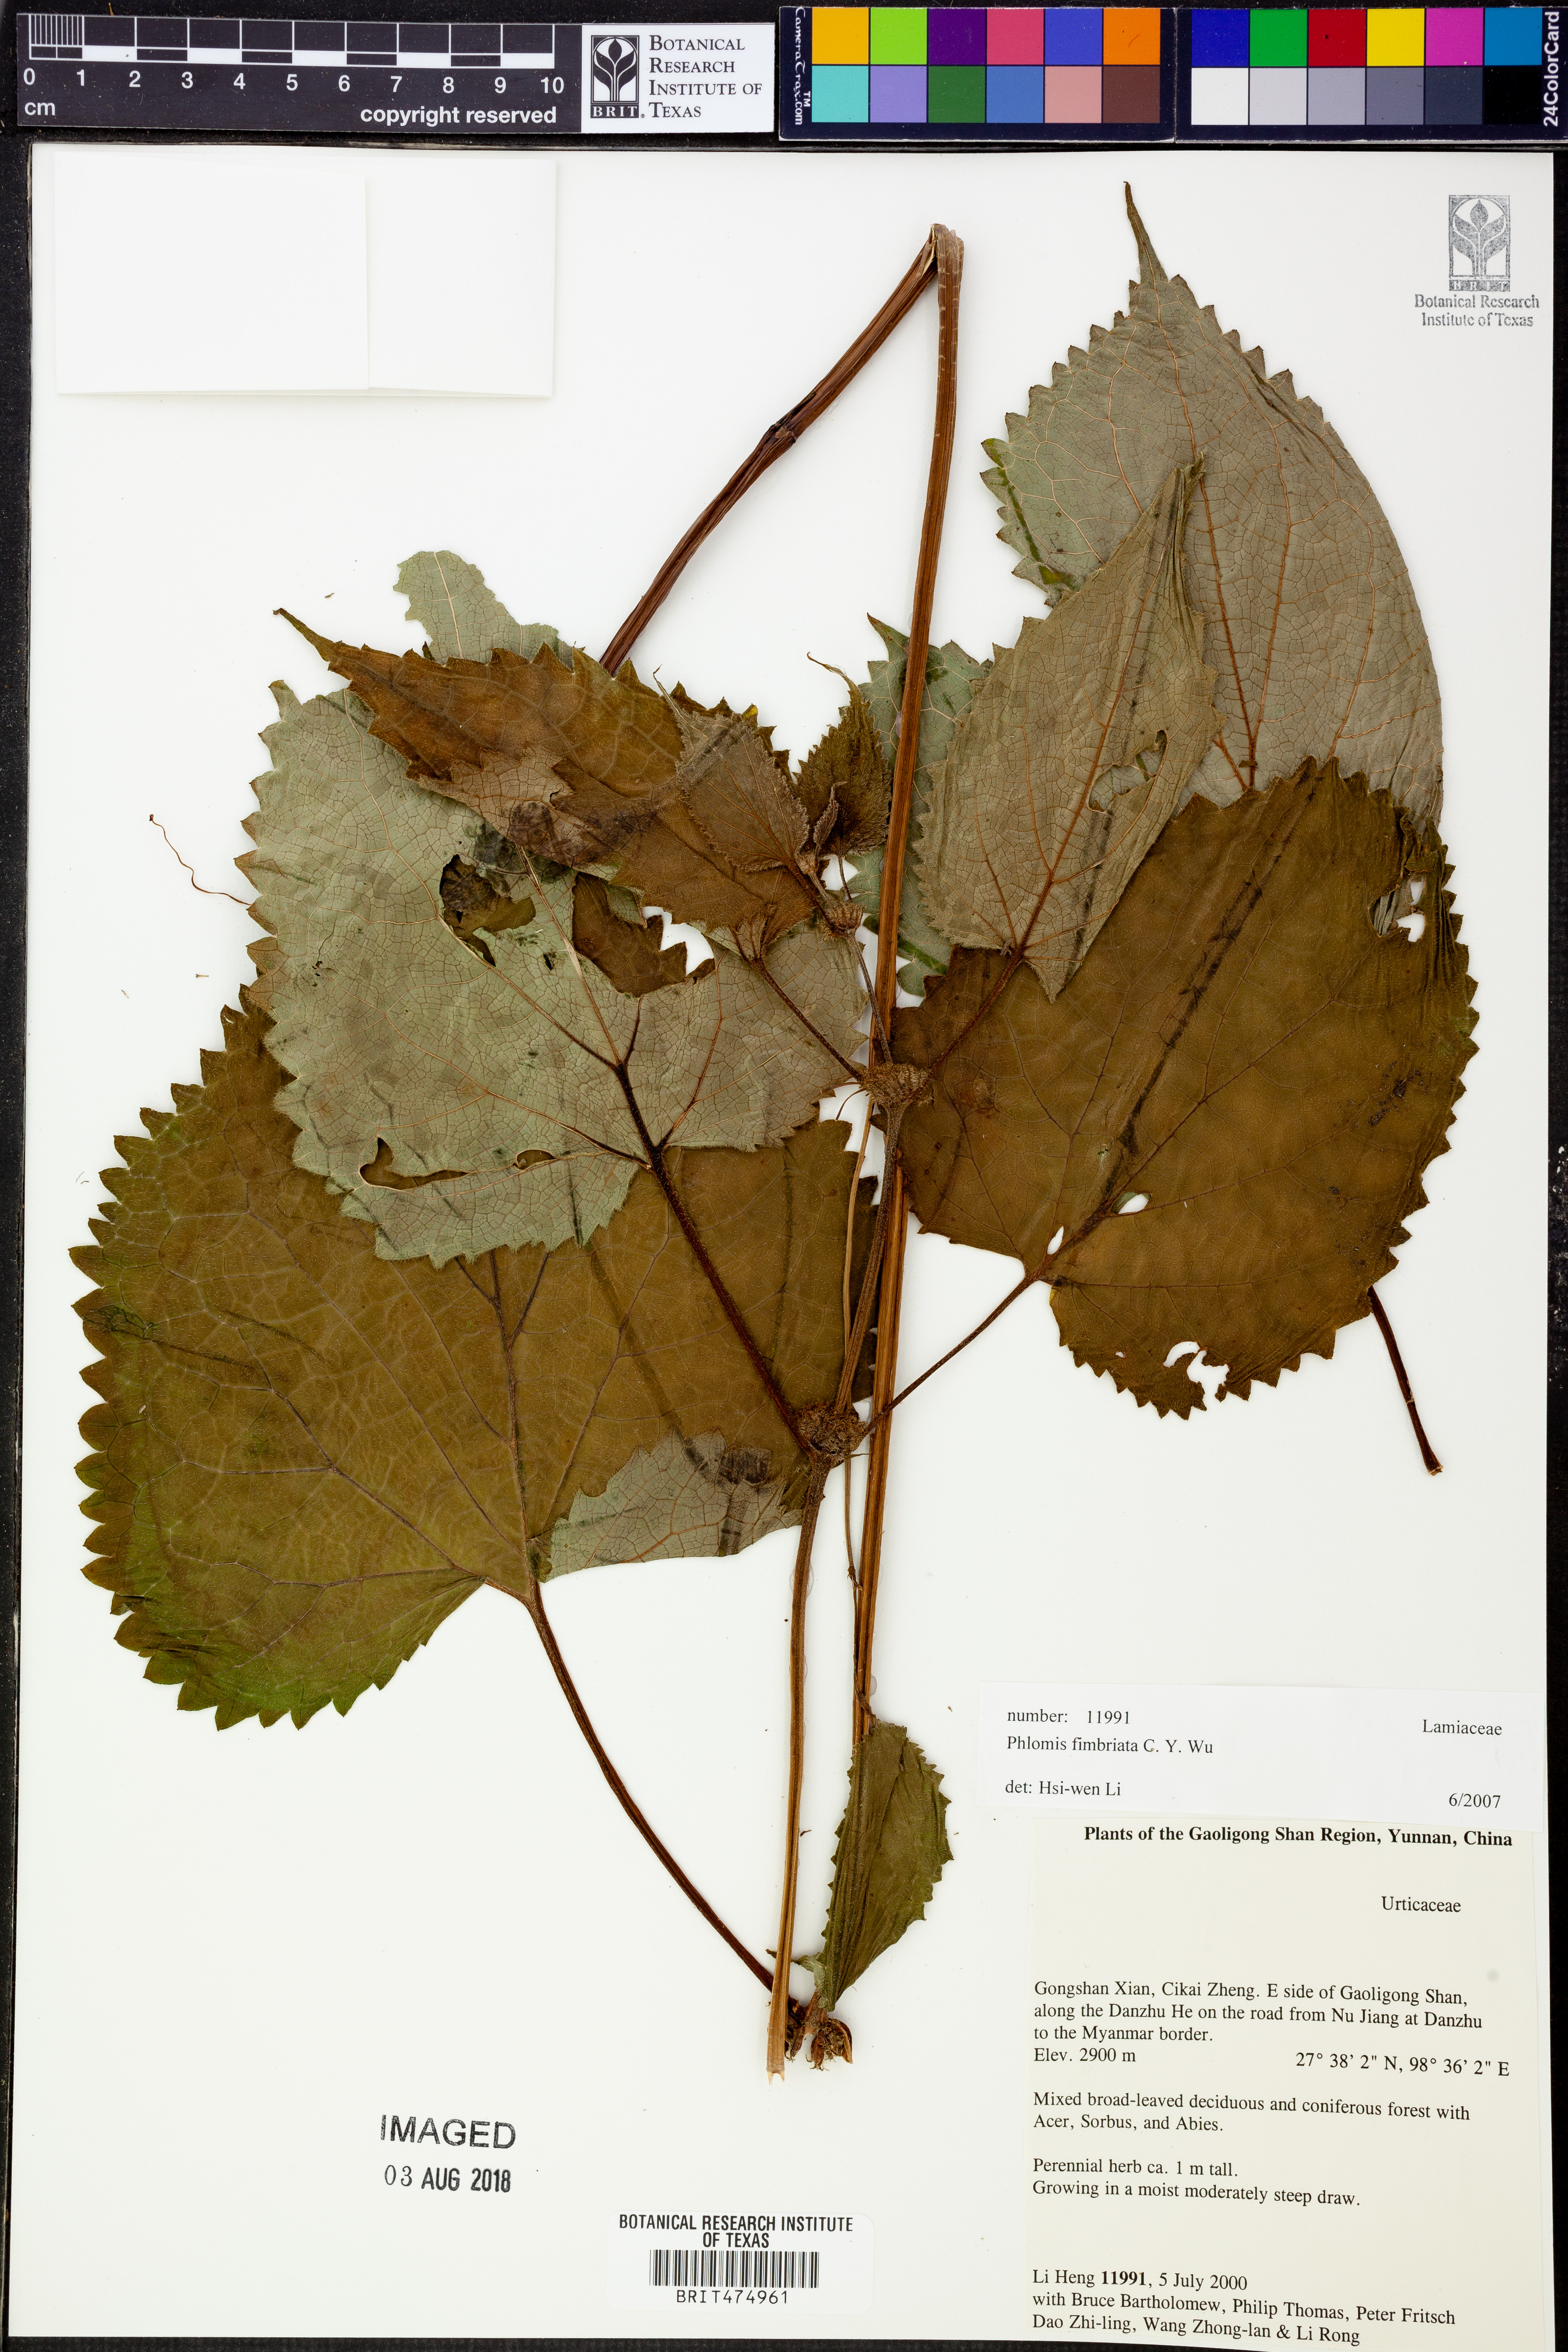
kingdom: Plantae
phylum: Tracheophyta
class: Magnoliopsida
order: Lamiales
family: Lamiaceae
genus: Phlomoides
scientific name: Phlomoides fimbriata
